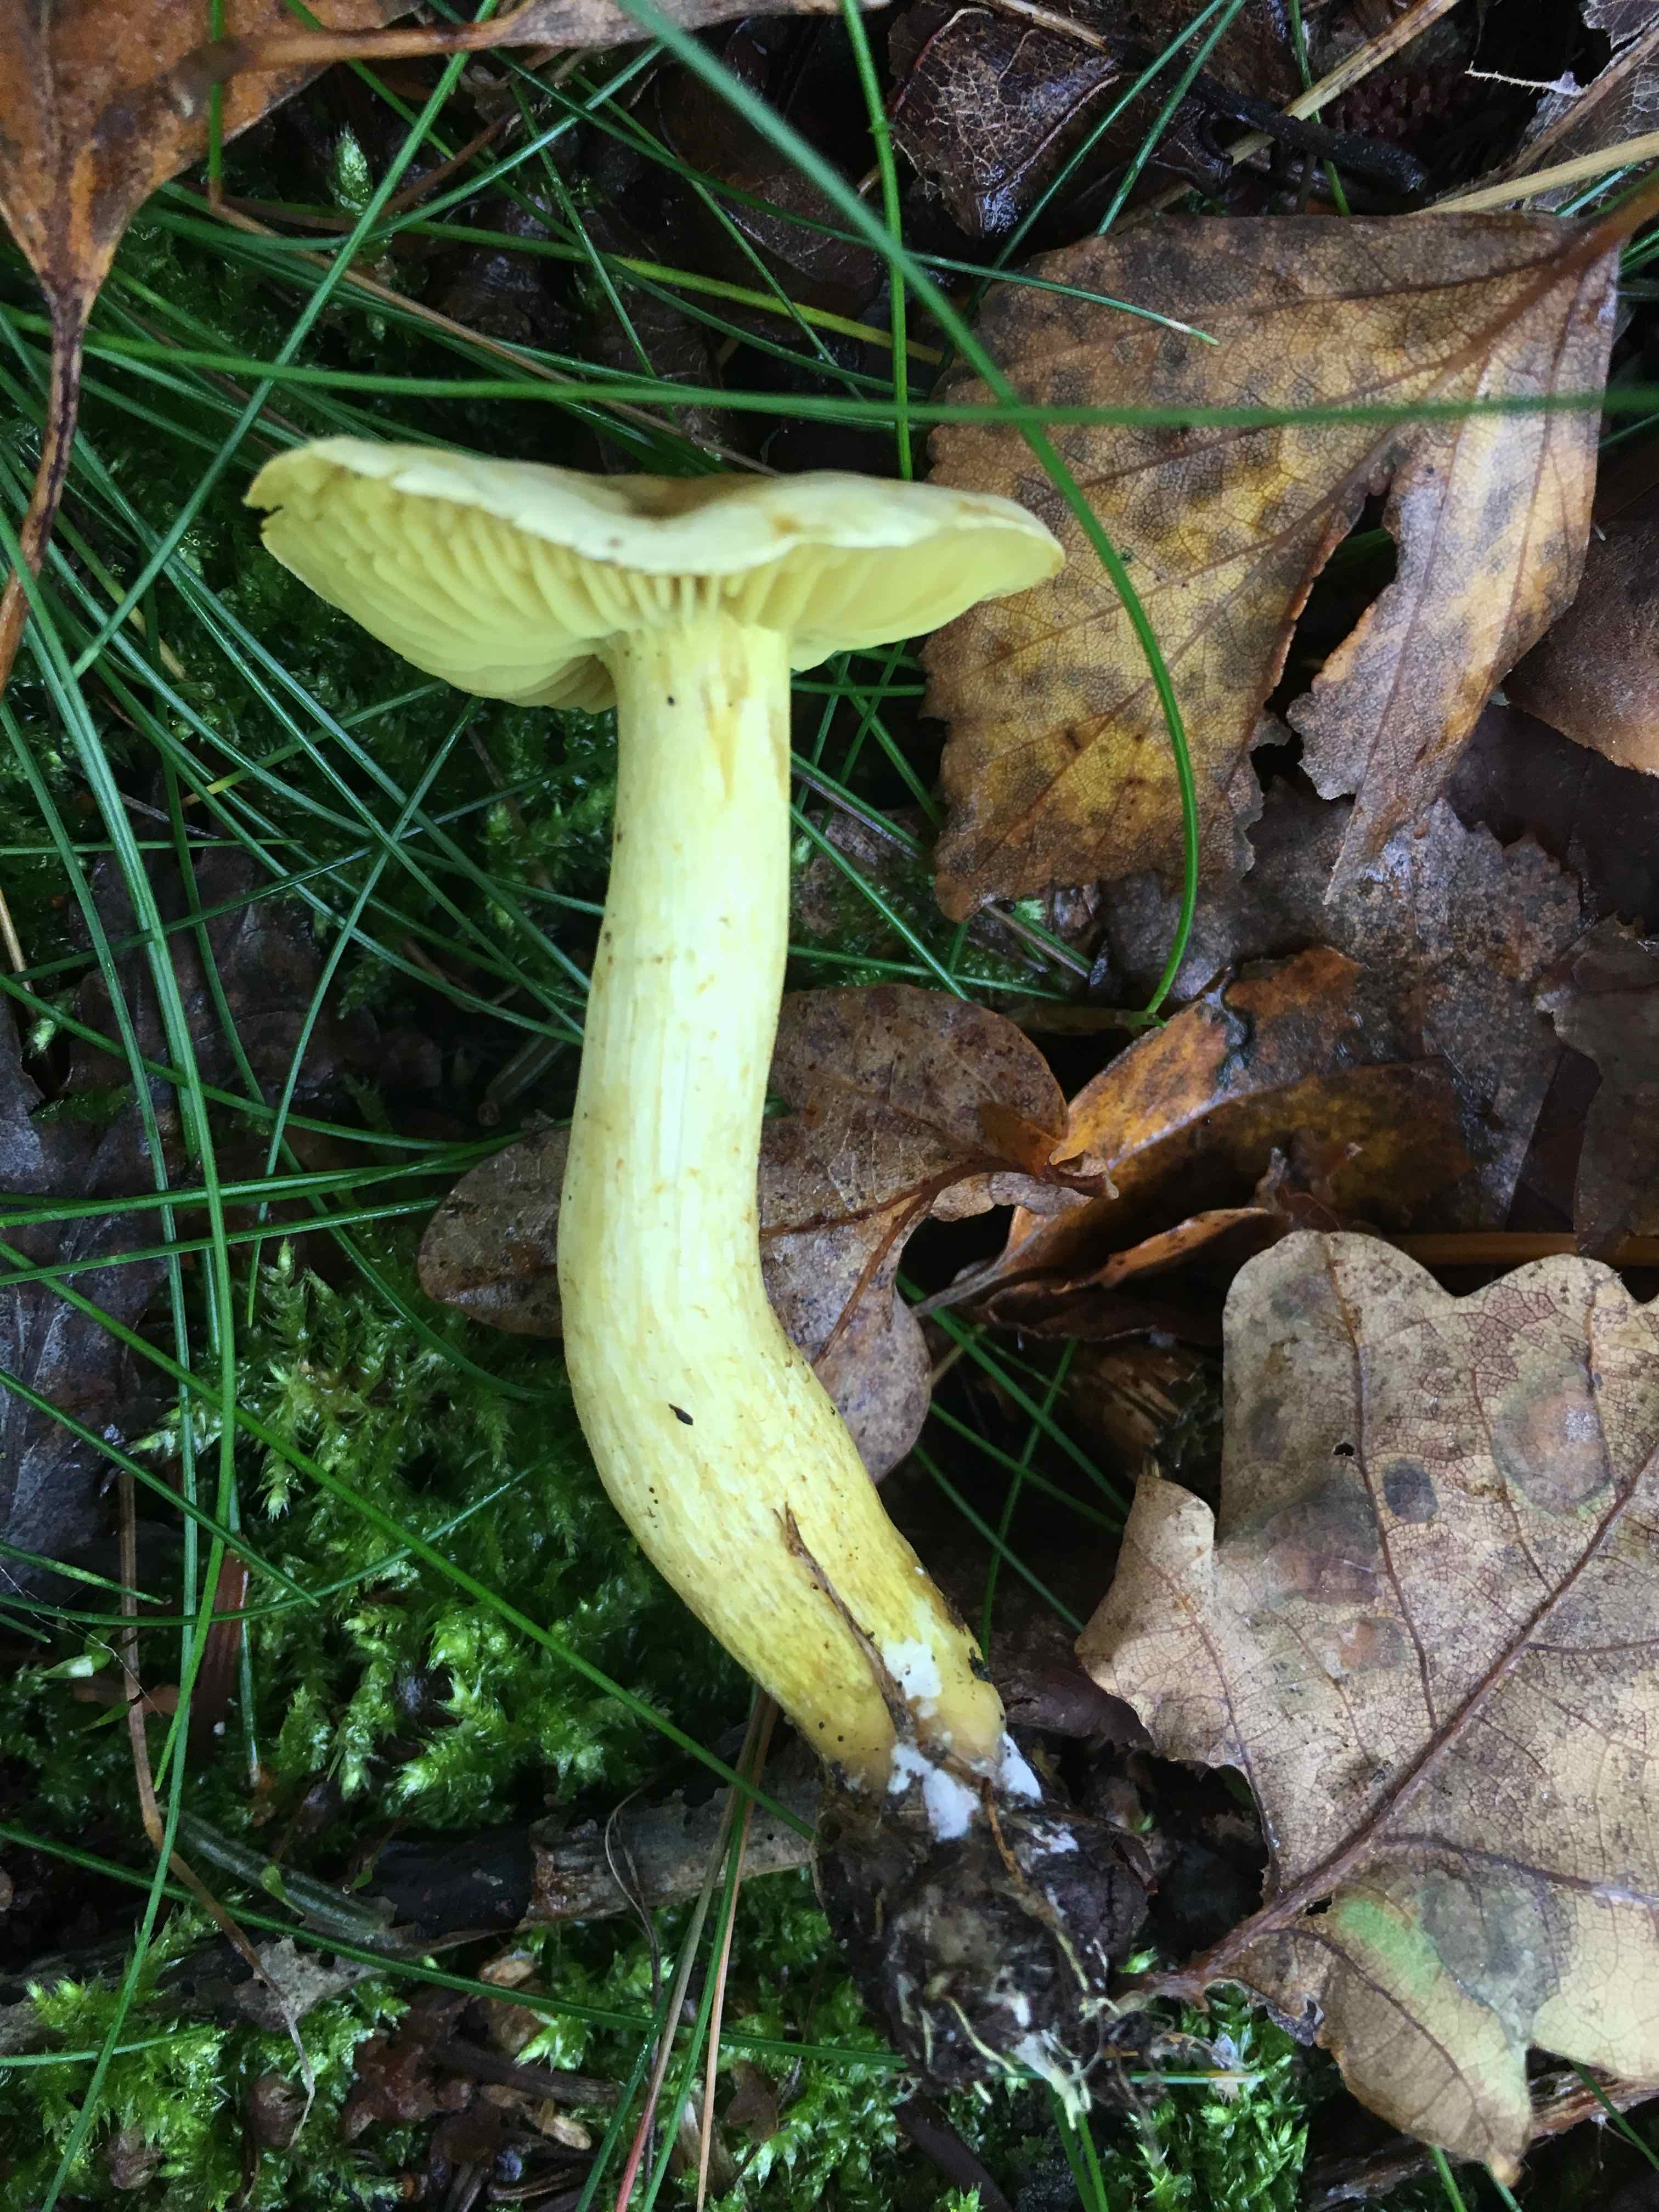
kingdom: Fungi
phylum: Basidiomycota
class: Agaricomycetes
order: Agaricales
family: Tricholomataceae
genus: Tricholoma
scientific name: Tricholoma sulphureum
